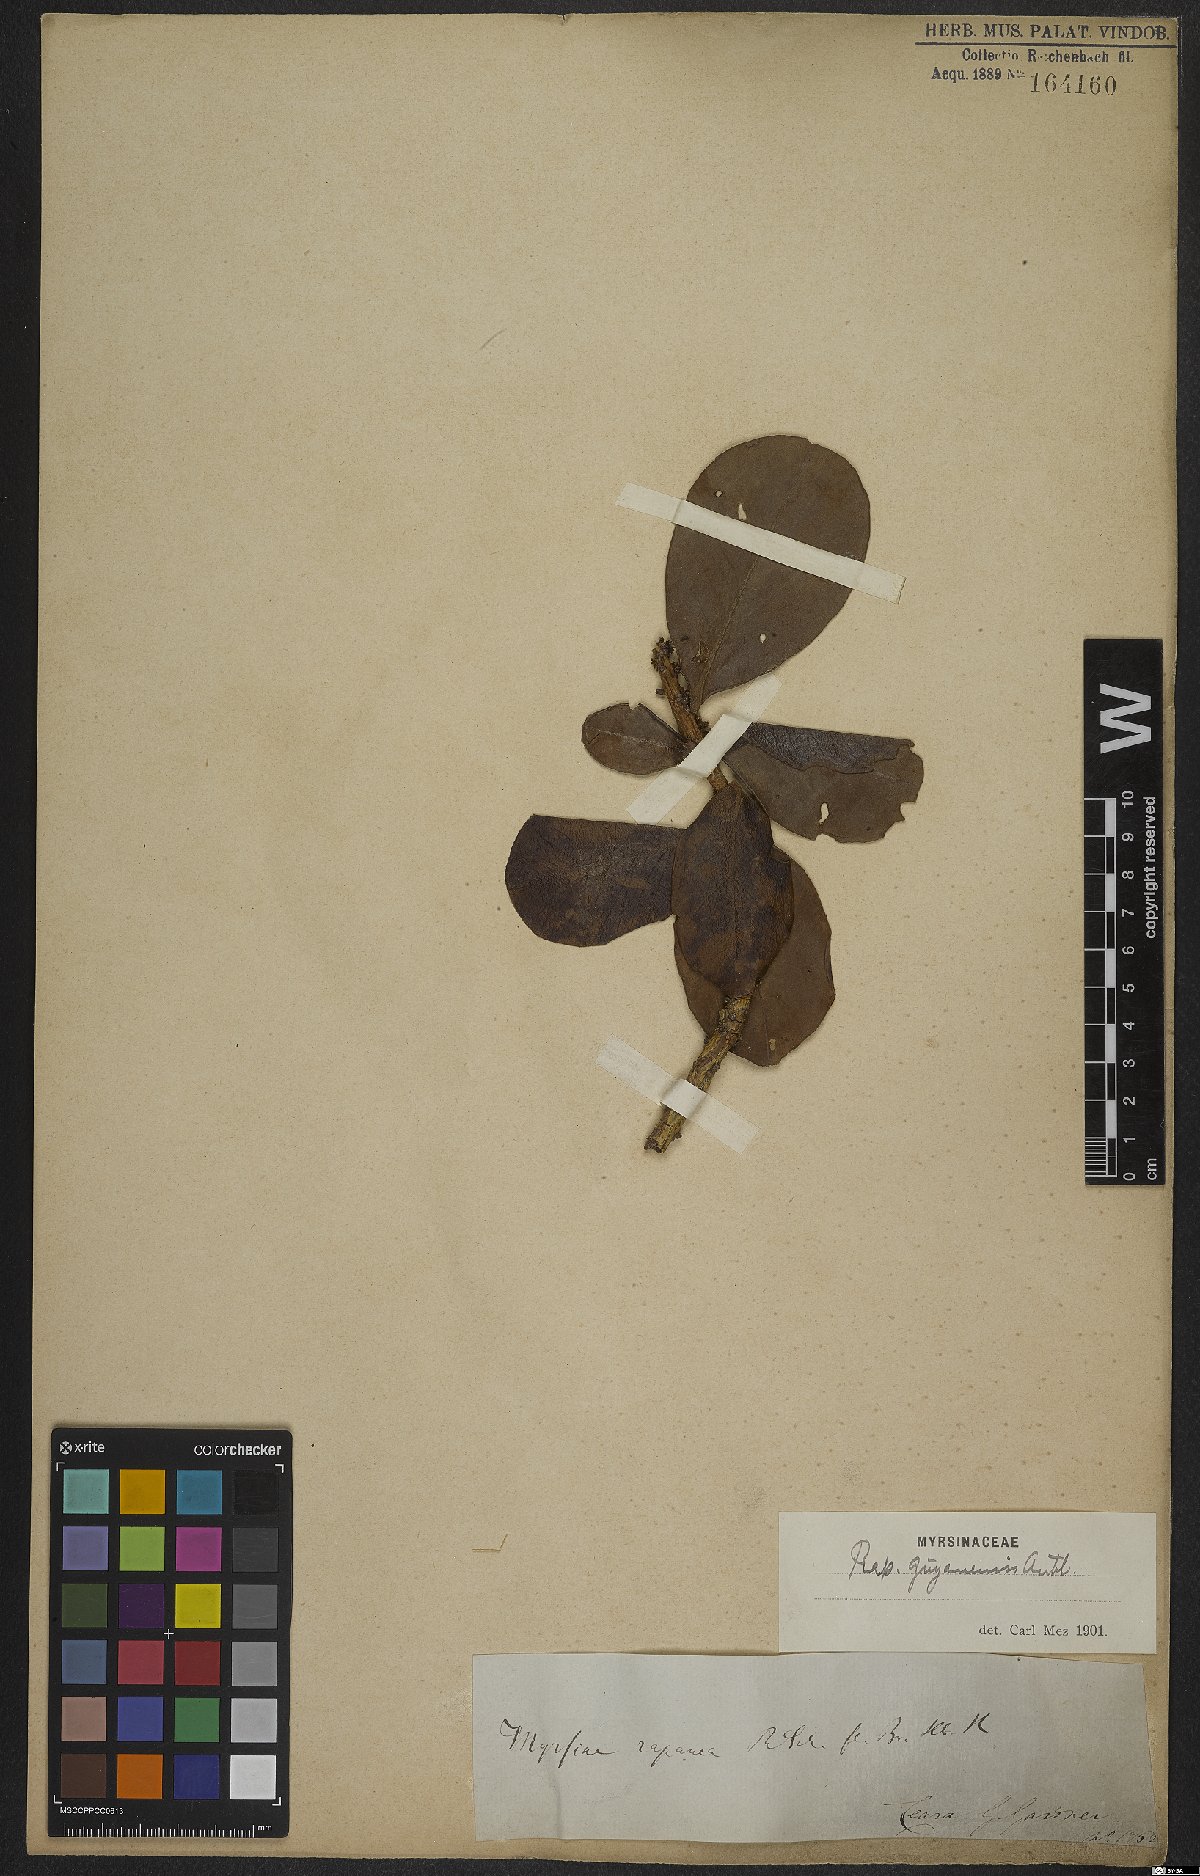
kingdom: Plantae
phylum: Tracheophyta
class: Magnoliopsida
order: Ericales
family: Primulaceae
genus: Myrsine
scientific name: Myrsine guianensis
